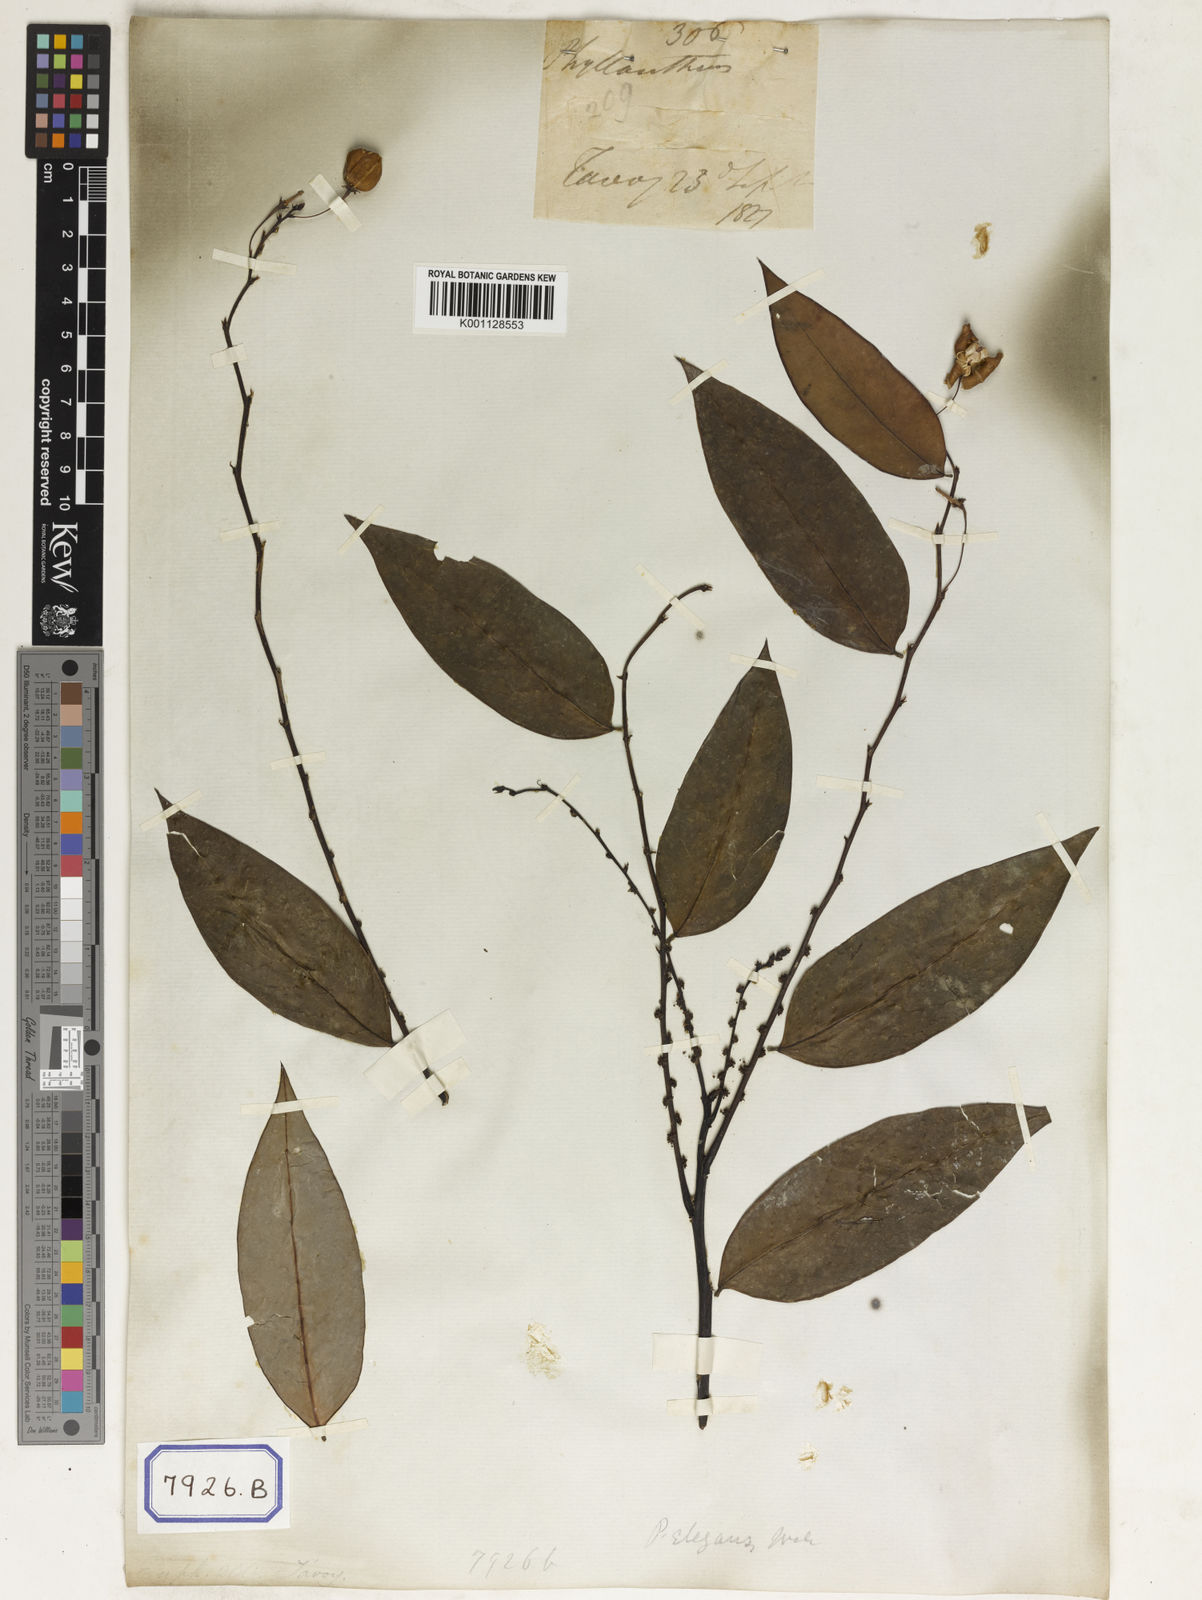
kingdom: Plantae
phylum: Tracheophyta
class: Magnoliopsida
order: Malpighiales
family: Phyllanthaceae
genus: Phyllanthus
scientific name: Phyllanthus
